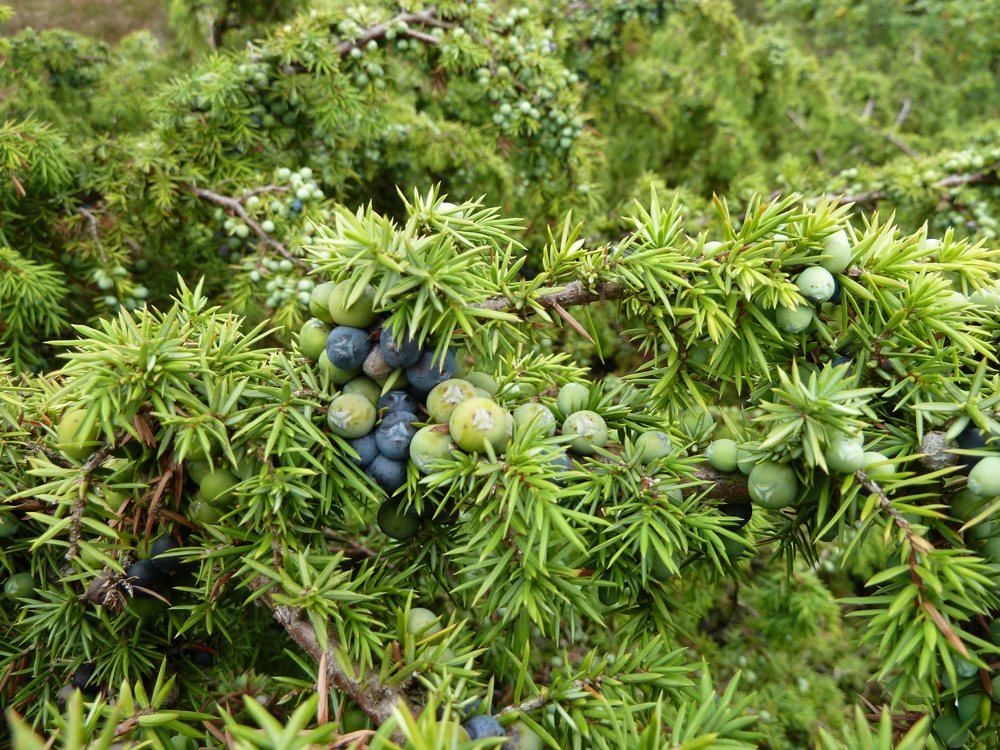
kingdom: Plantae
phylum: Tracheophyta
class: Pinopsida
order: Pinales
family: Cupressaceae
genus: Juniperus
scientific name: Juniperus communis
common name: Common juniper
